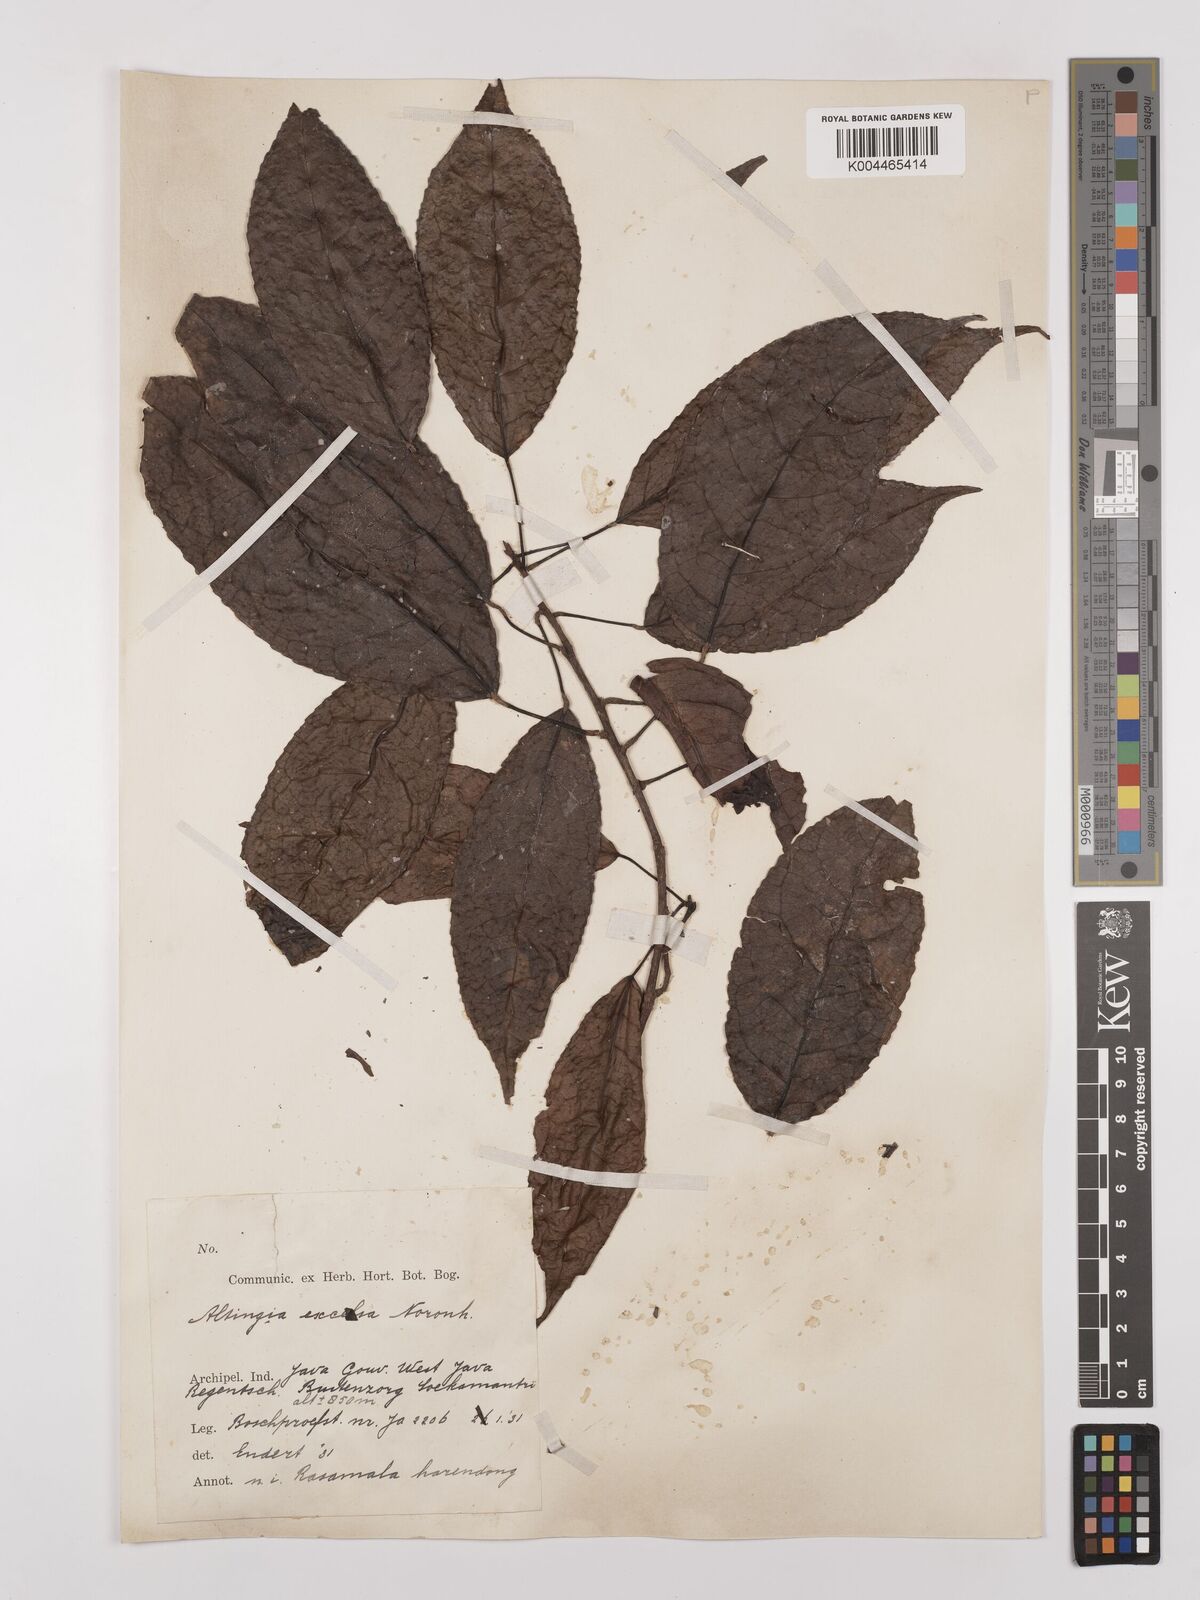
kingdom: Plantae
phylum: Tracheophyta
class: Magnoliopsida
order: Saxifragales
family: Altingiaceae
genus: Liquidambar
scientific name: Liquidambar excelsa
